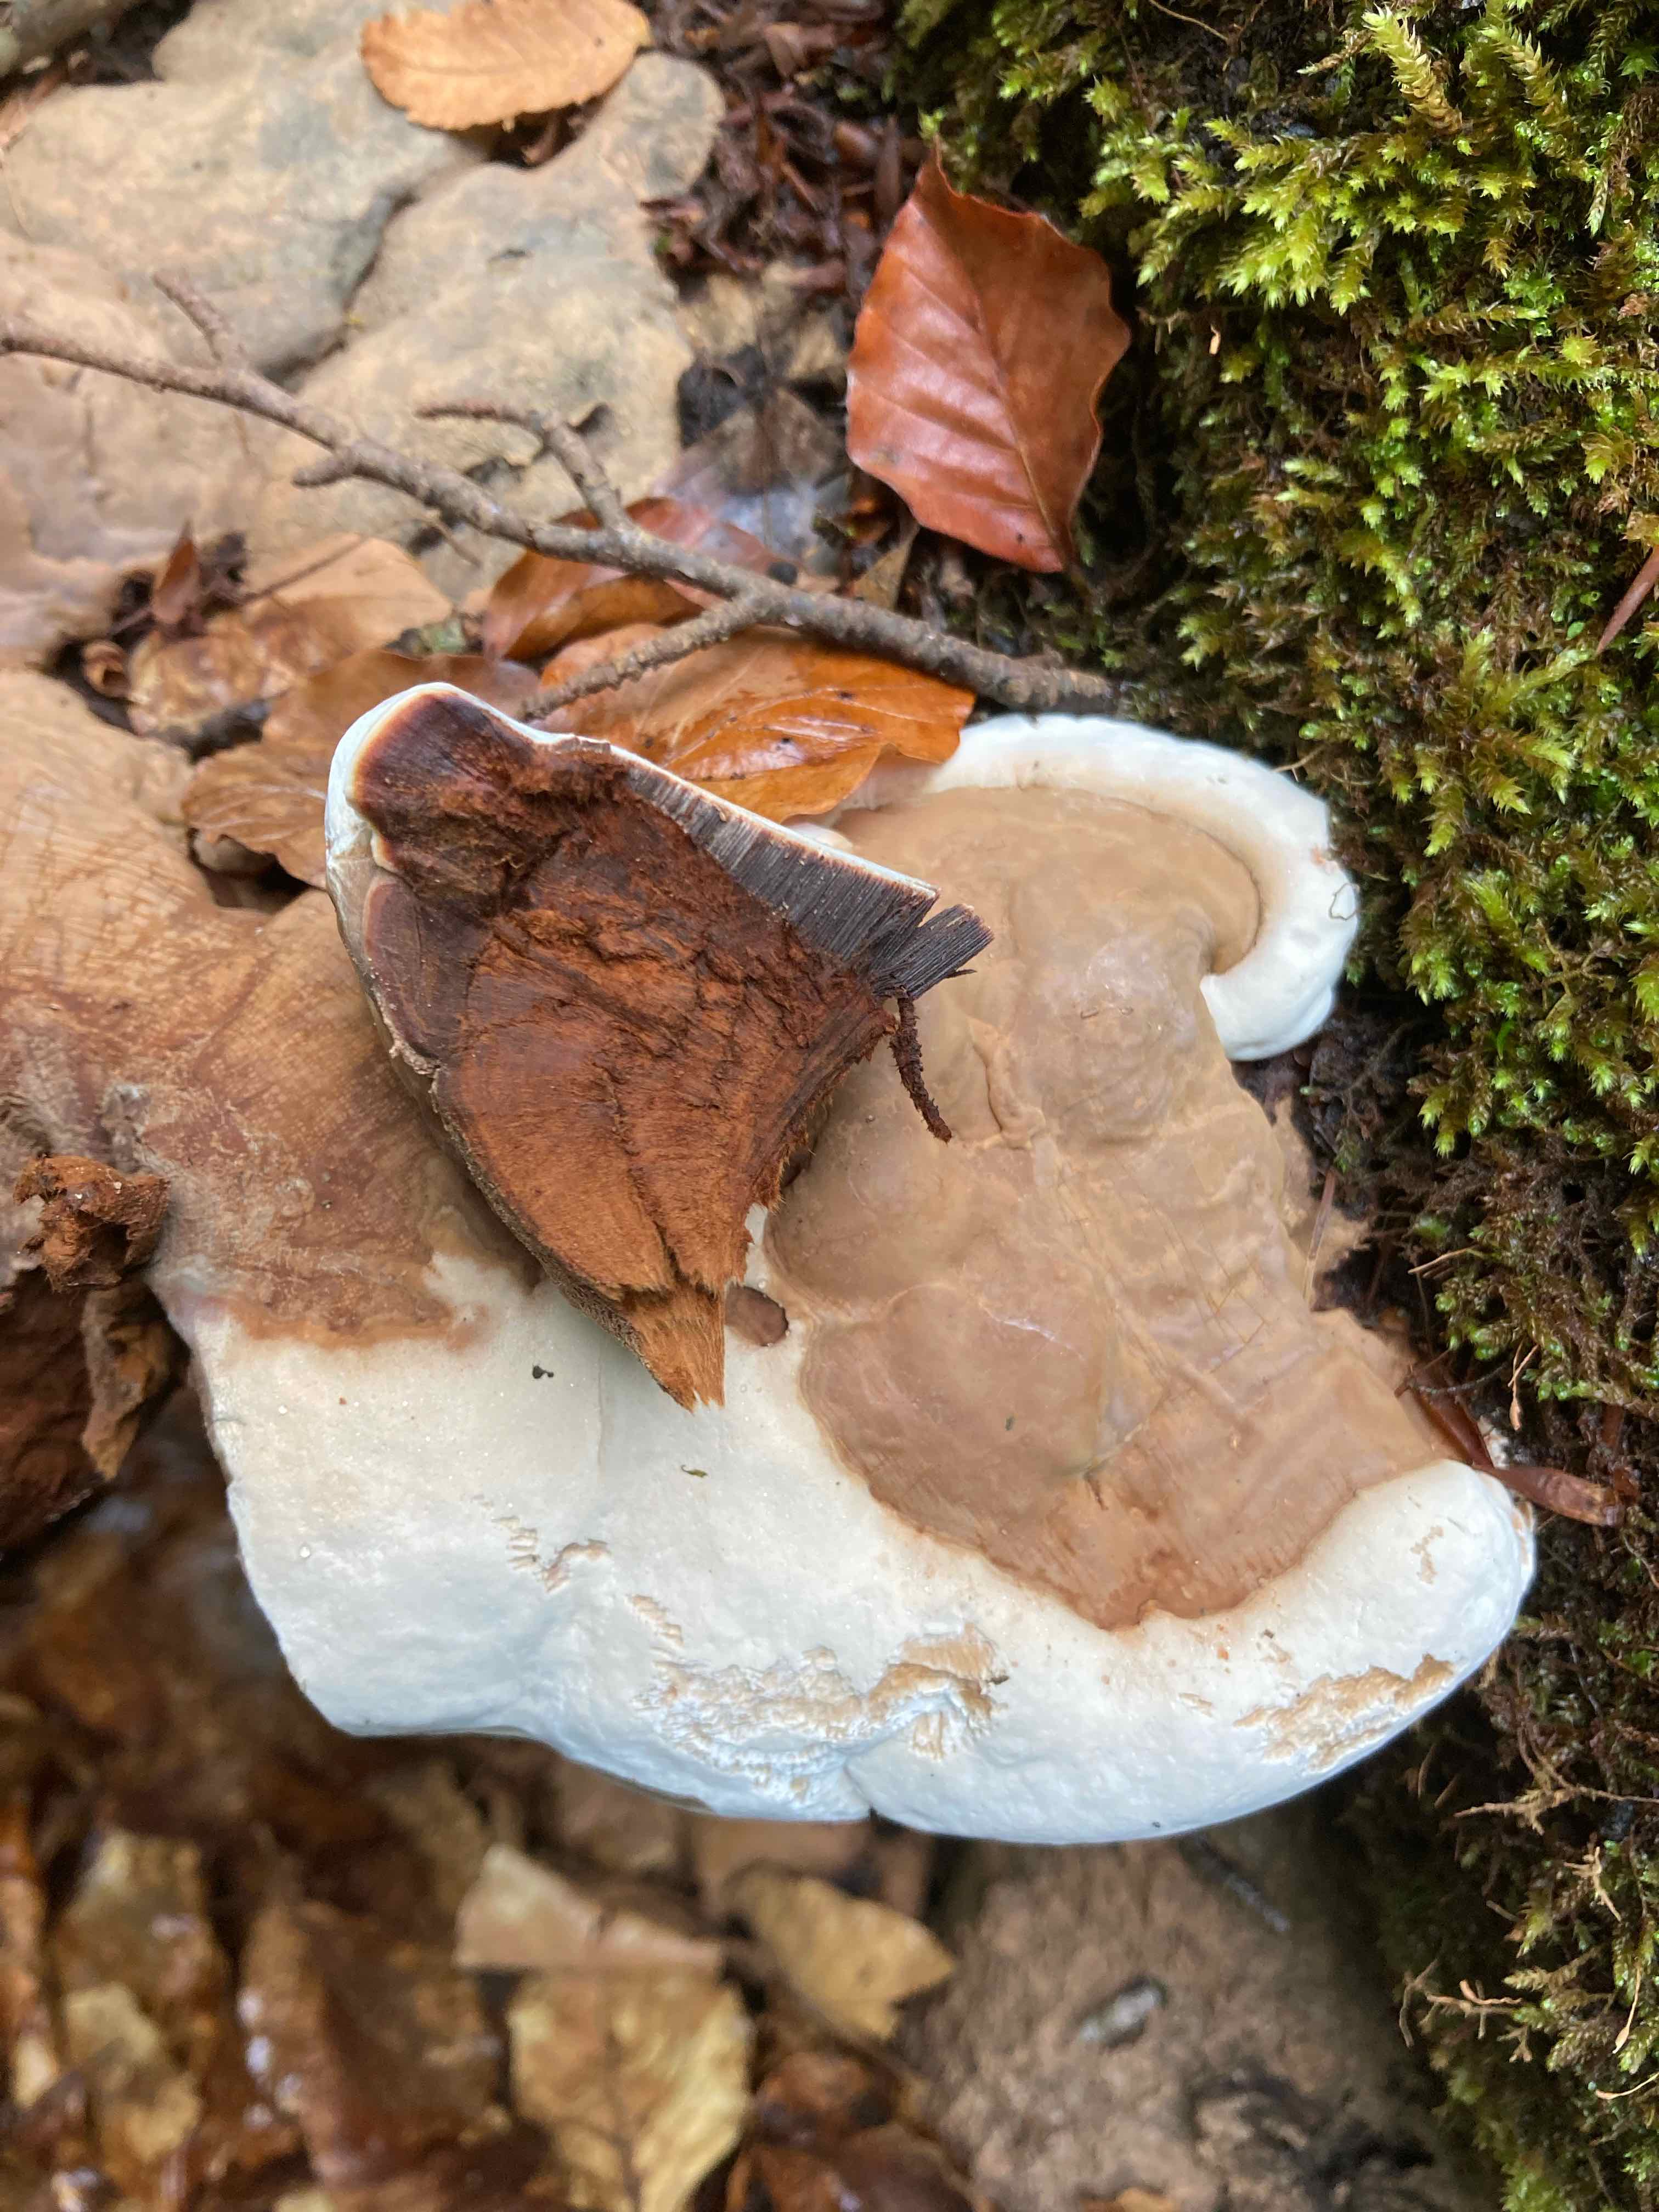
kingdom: Fungi
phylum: Basidiomycota
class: Agaricomycetes
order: Polyporales
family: Polyporaceae
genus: Ganoderma
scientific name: Ganoderma pfeifferi
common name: kobberrød lakporesvamp
